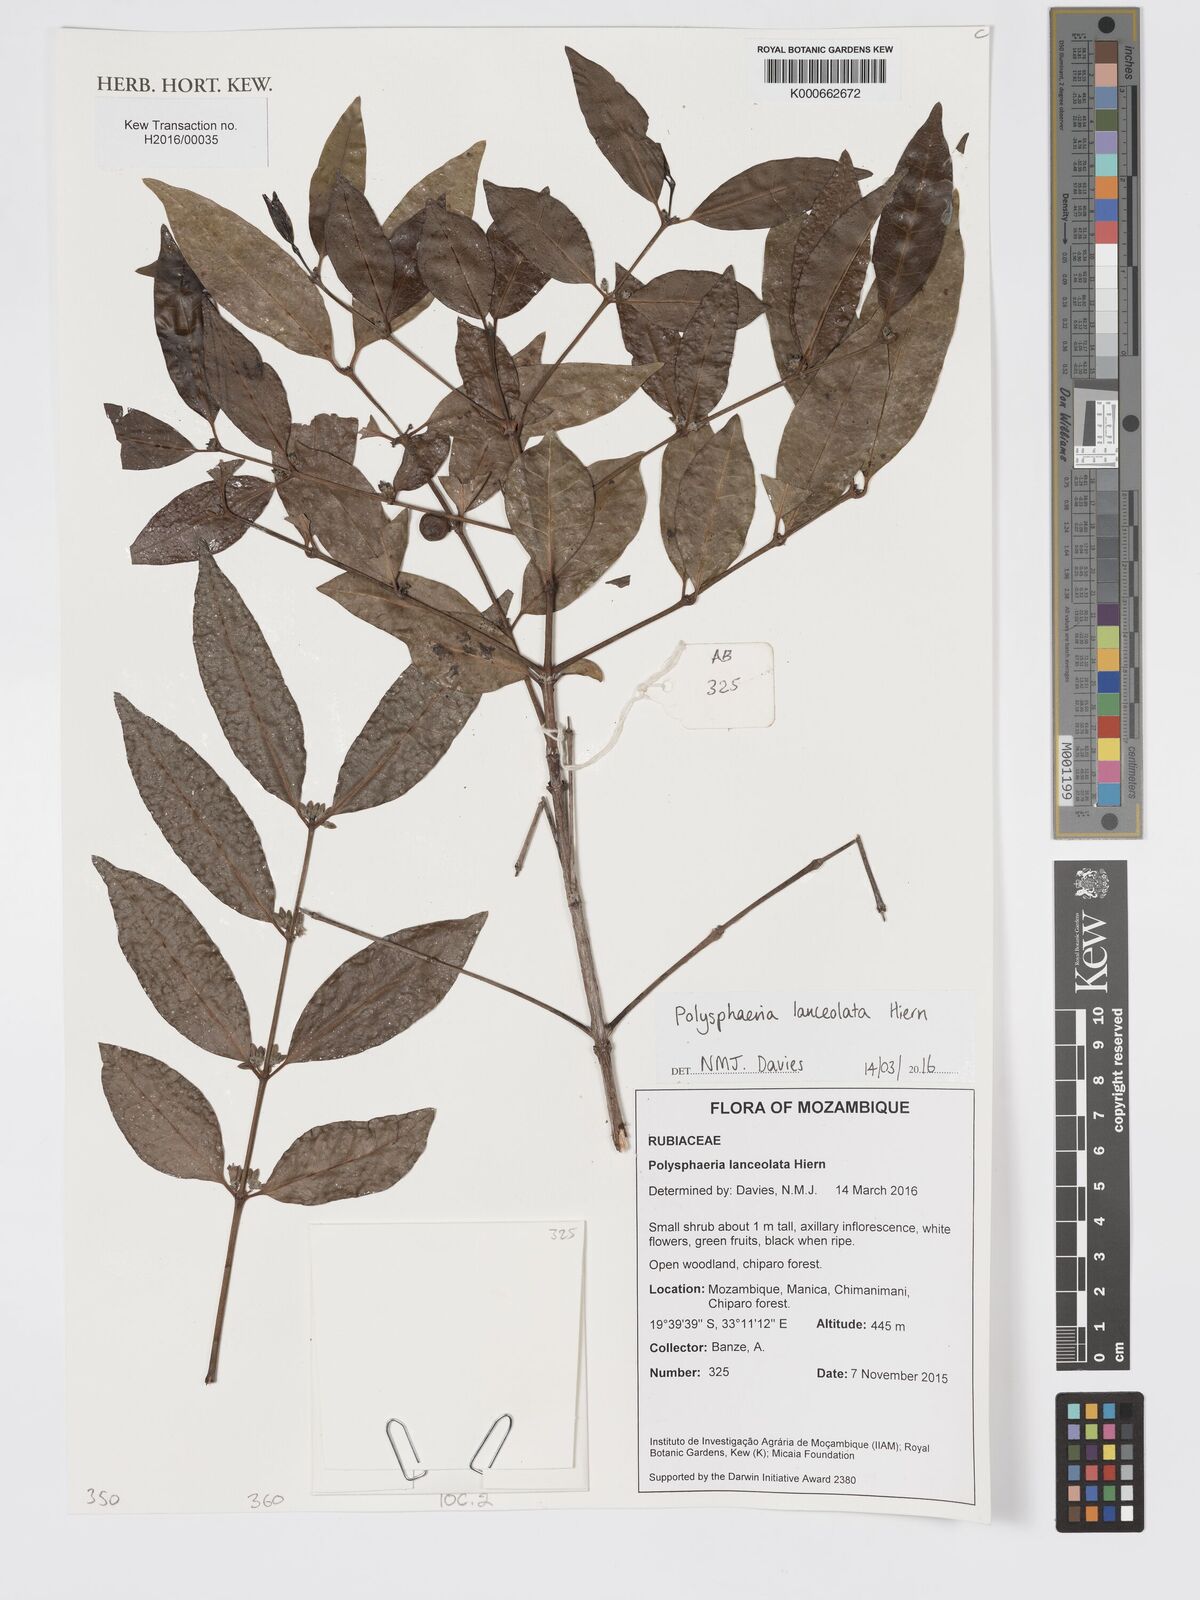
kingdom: Plantae
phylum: Tracheophyta
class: Magnoliopsida
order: Gentianales
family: Rubiaceae
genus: Polysphaeria
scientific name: Polysphaeria lanceolata
